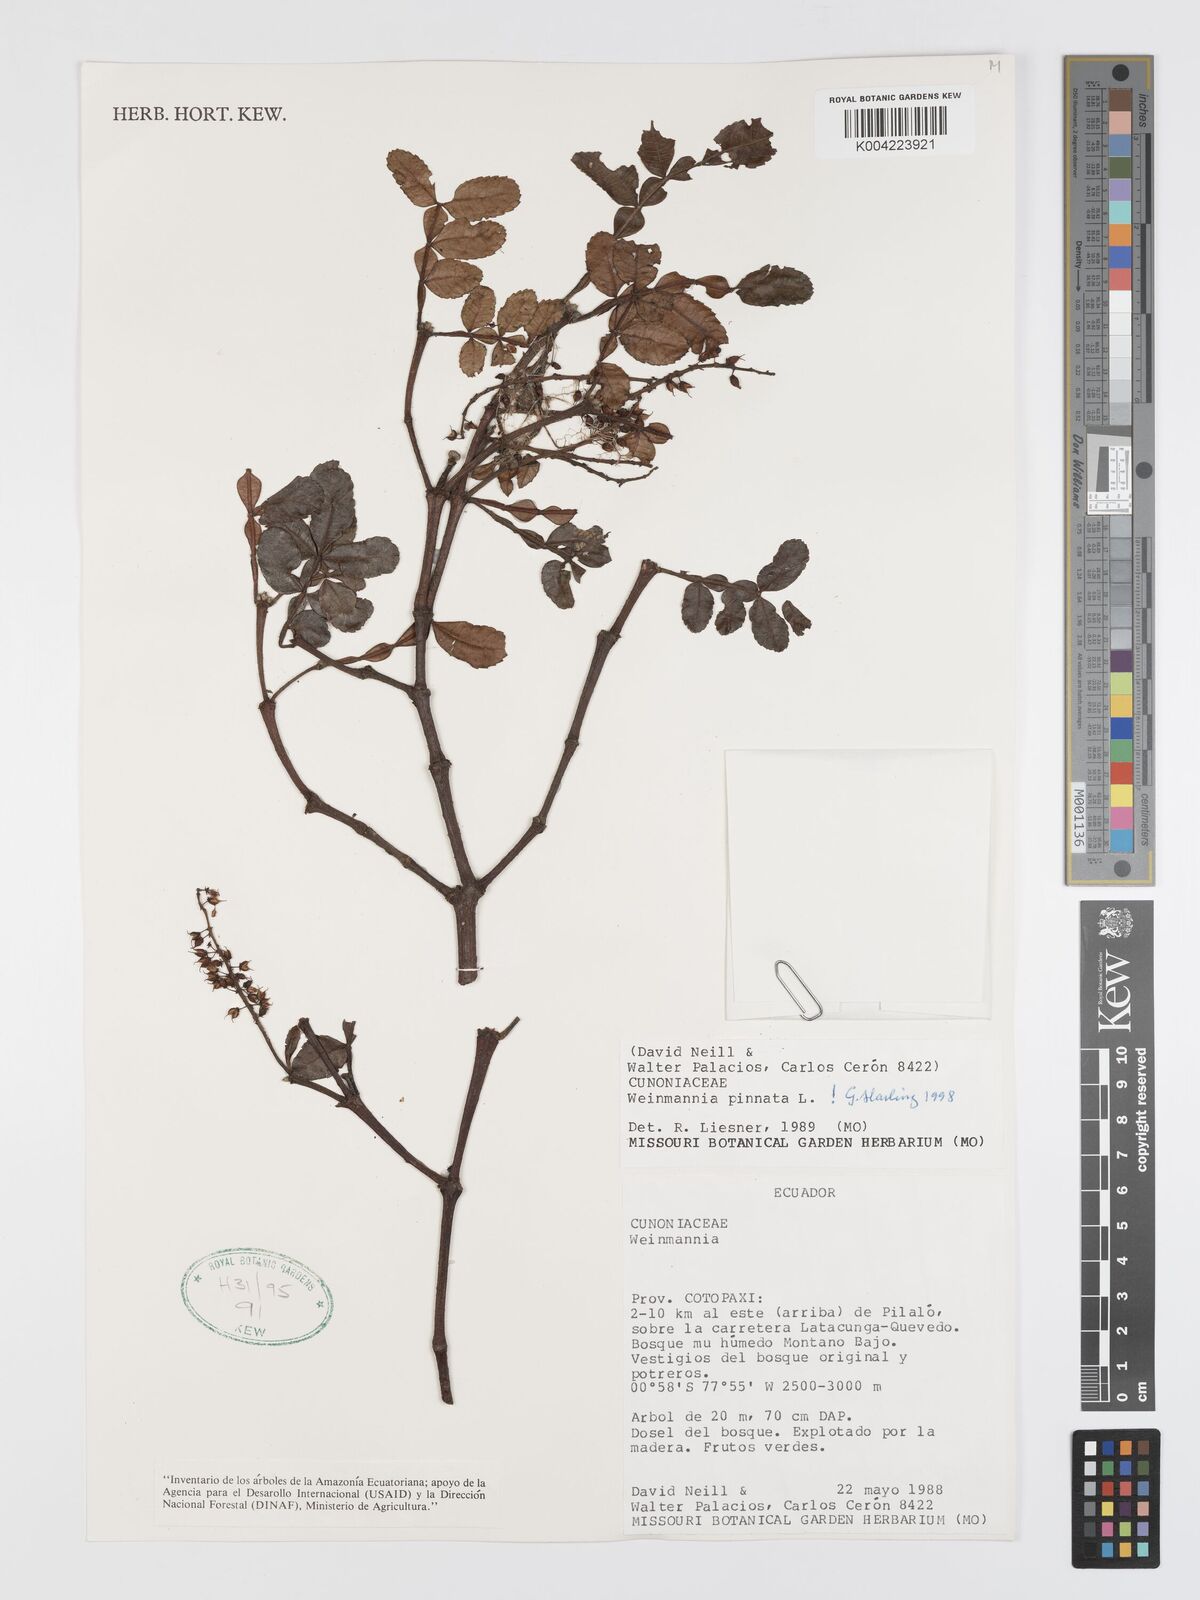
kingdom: Plantae
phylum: Tracheophyta
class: Magnoliopsida
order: Oxalidales
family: Cunoniaceae
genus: Weinmannia
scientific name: Weinmannia pinnata
